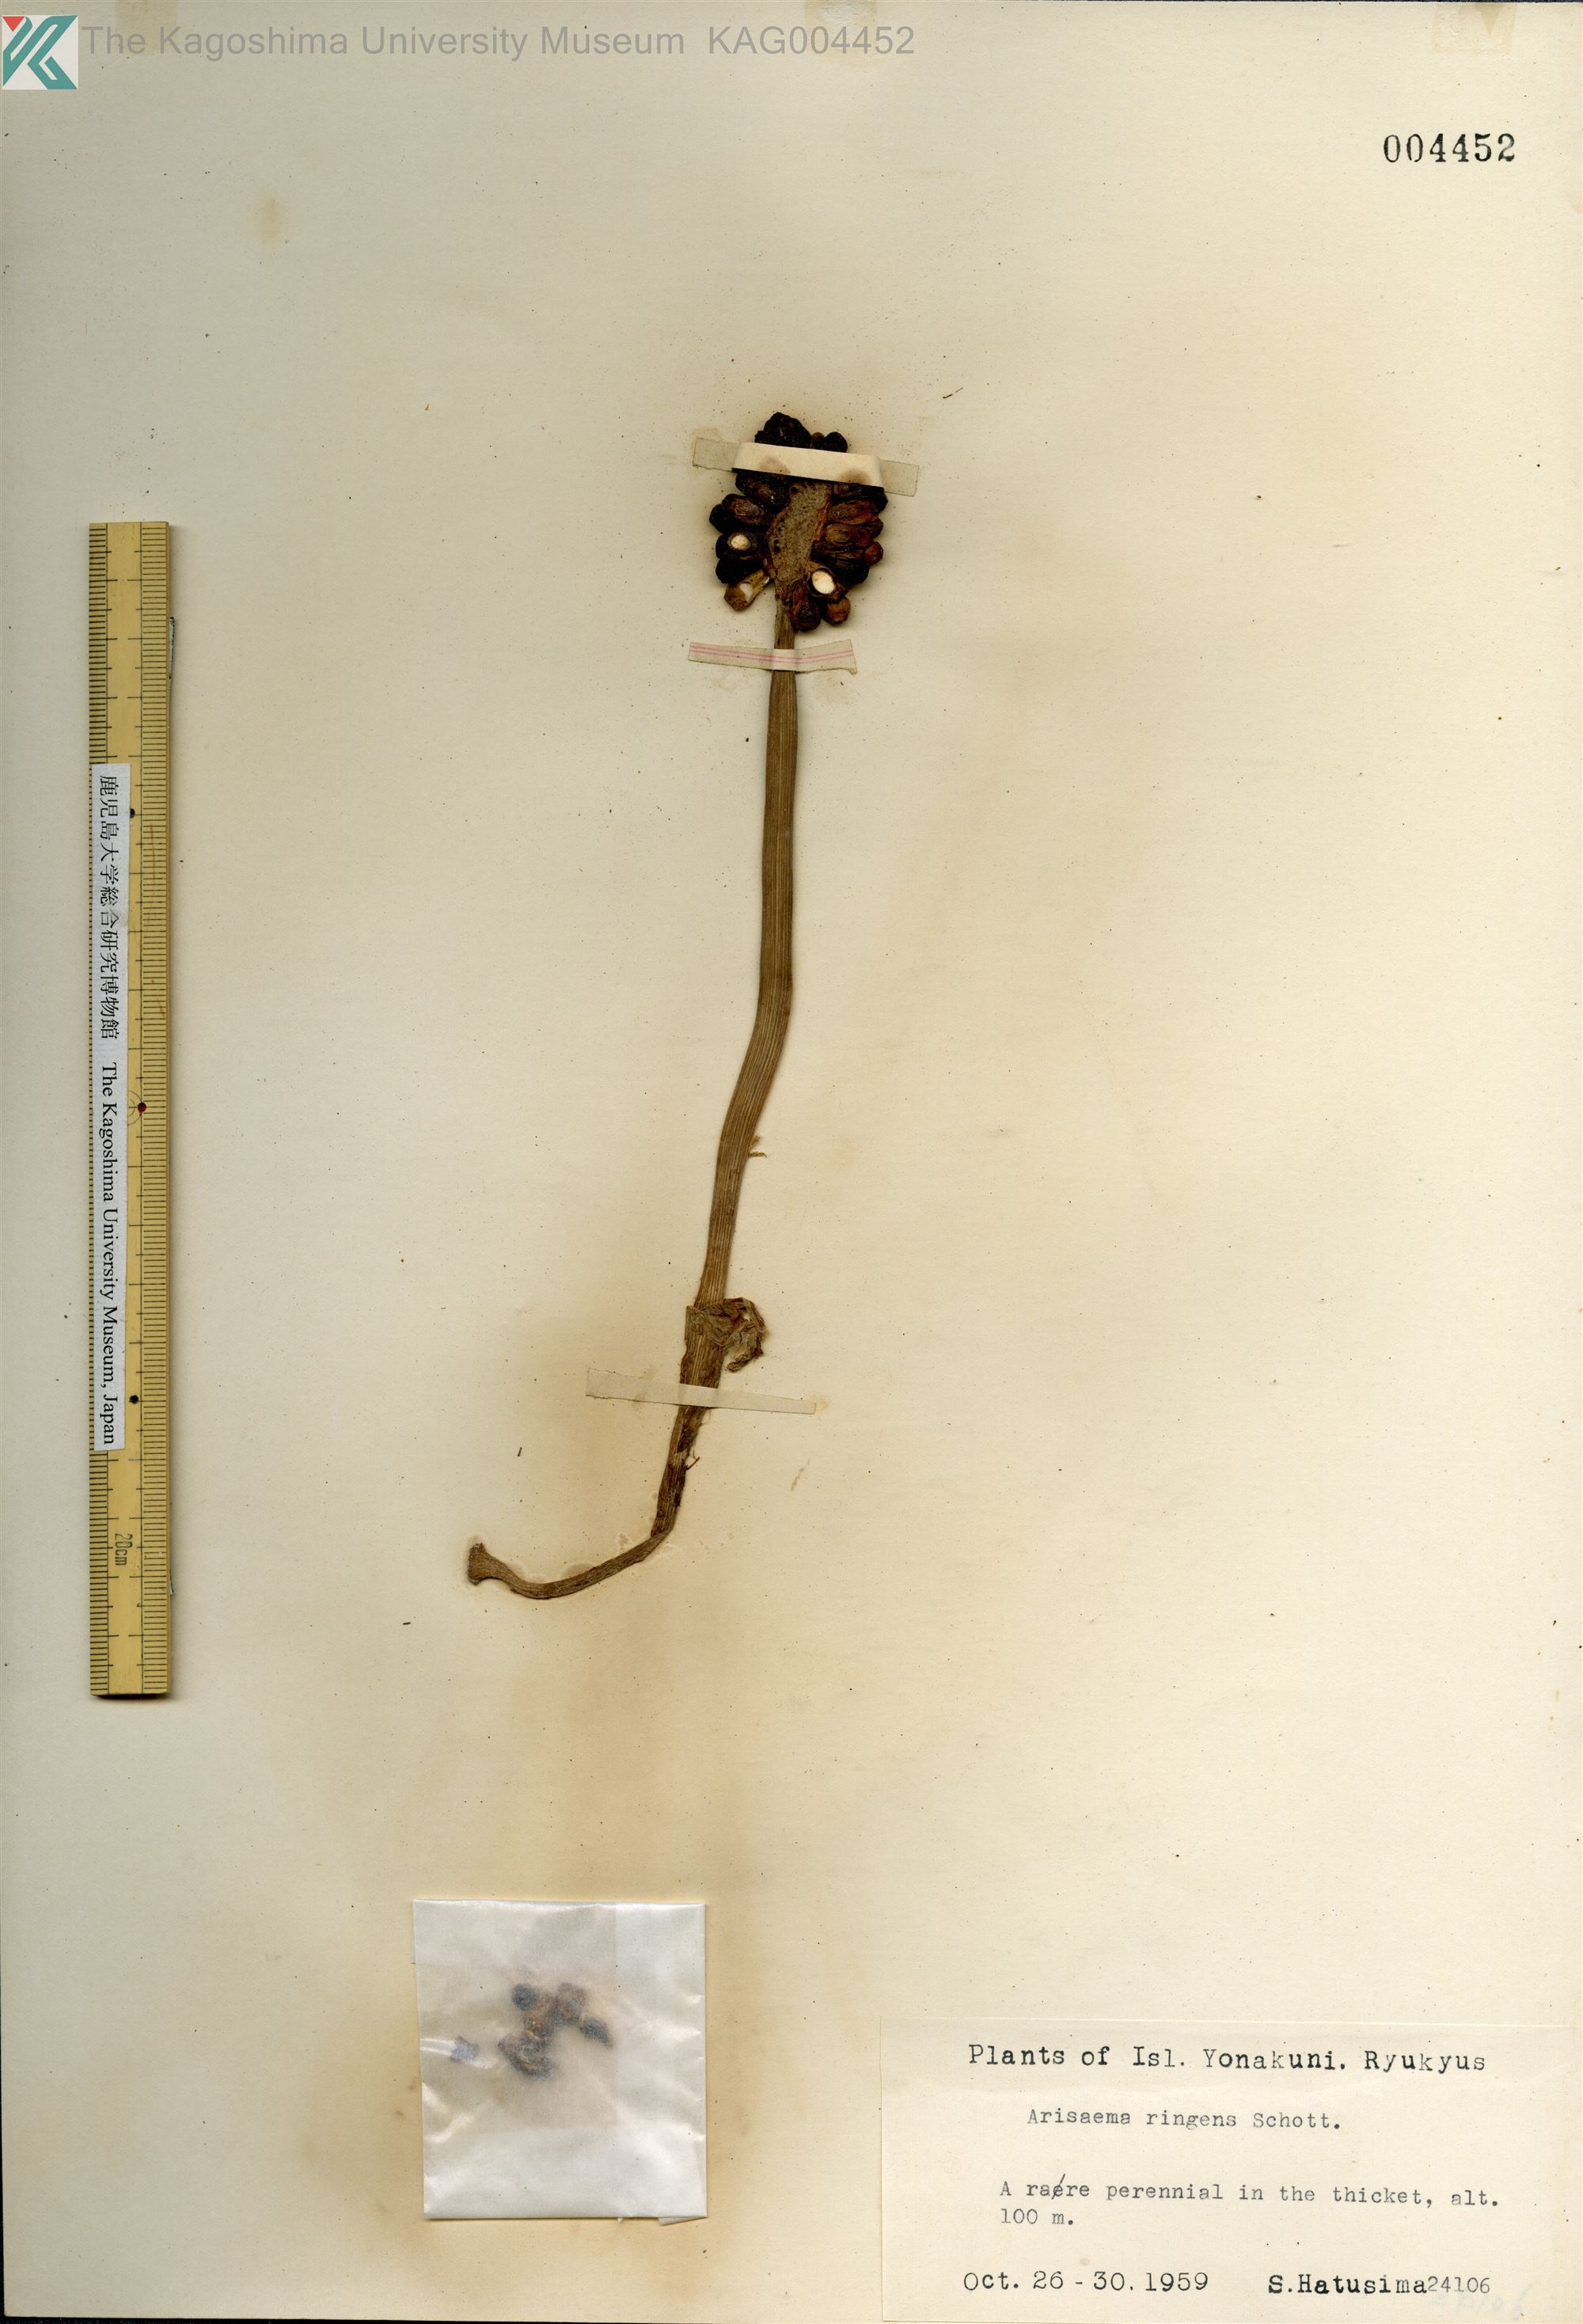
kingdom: Plantae
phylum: Tracheophyta
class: Liliopsida
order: Alismatales
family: Araceae
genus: Arisaema
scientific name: Arisaema ringens
